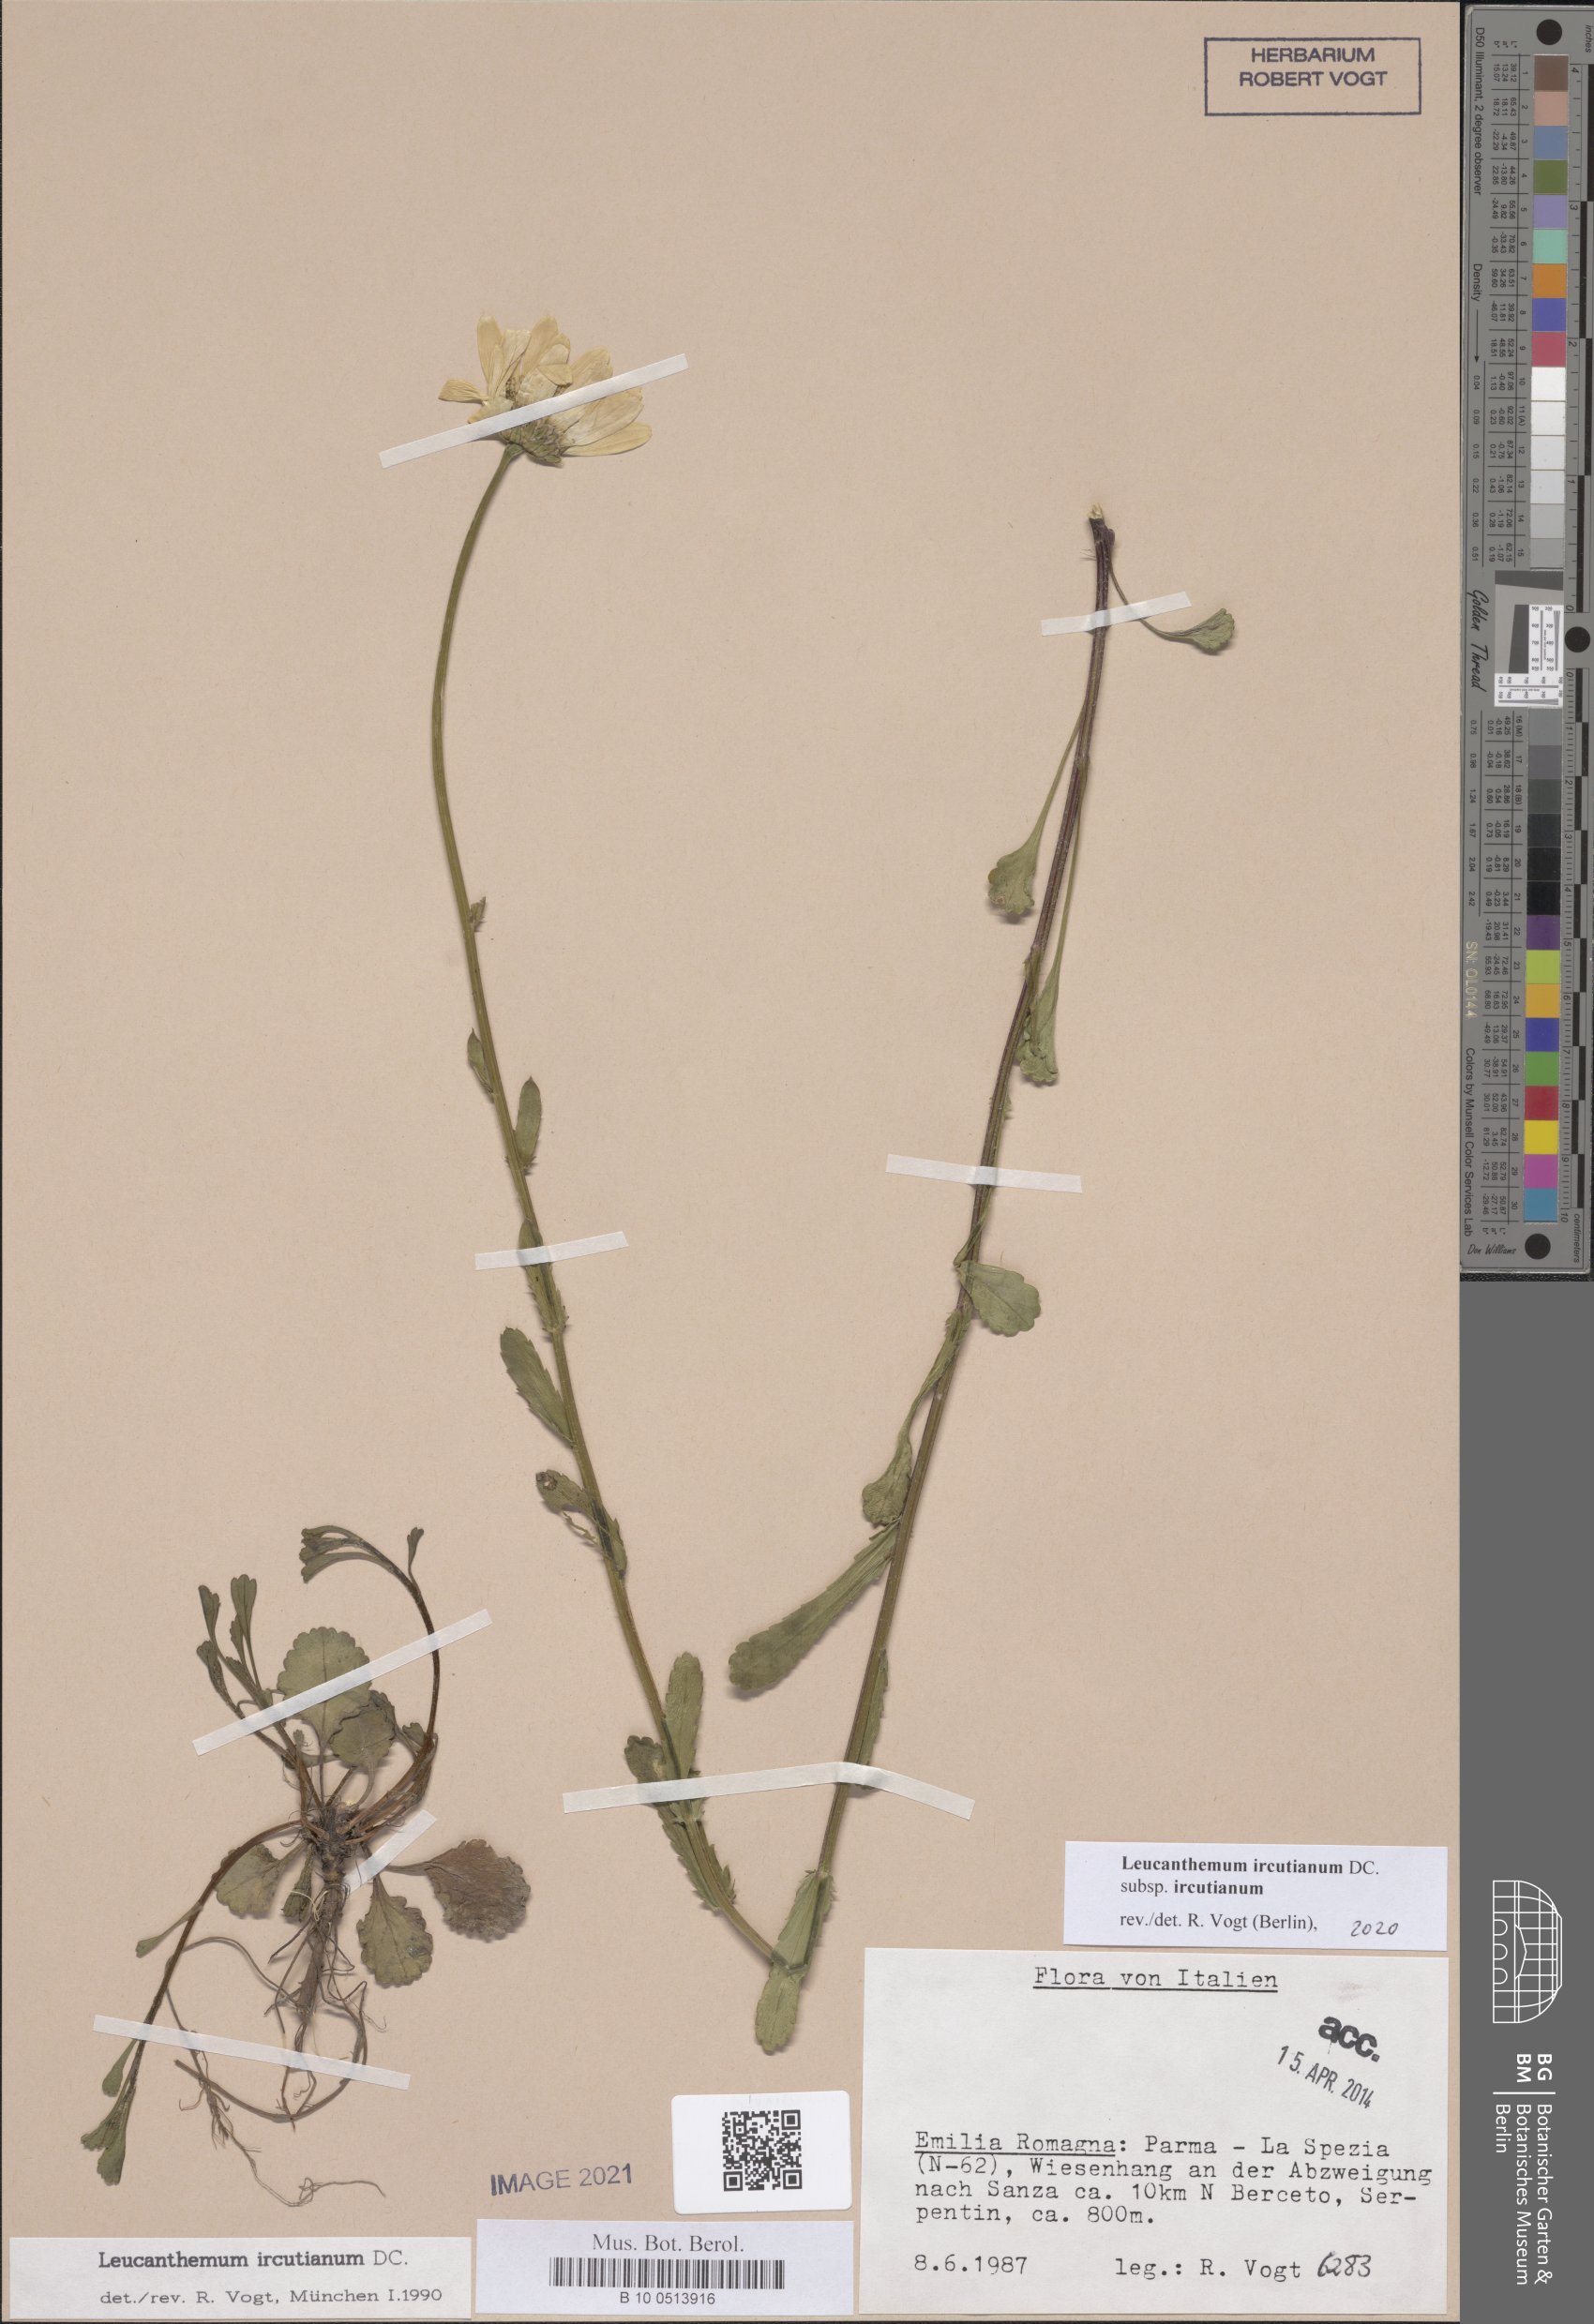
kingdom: Plantae
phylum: Tracheophyta
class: Magnoliopsida
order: Asterales
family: Asteraceae
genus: Leucanthemum
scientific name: Leucanthemum ircutianum
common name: Daisy
